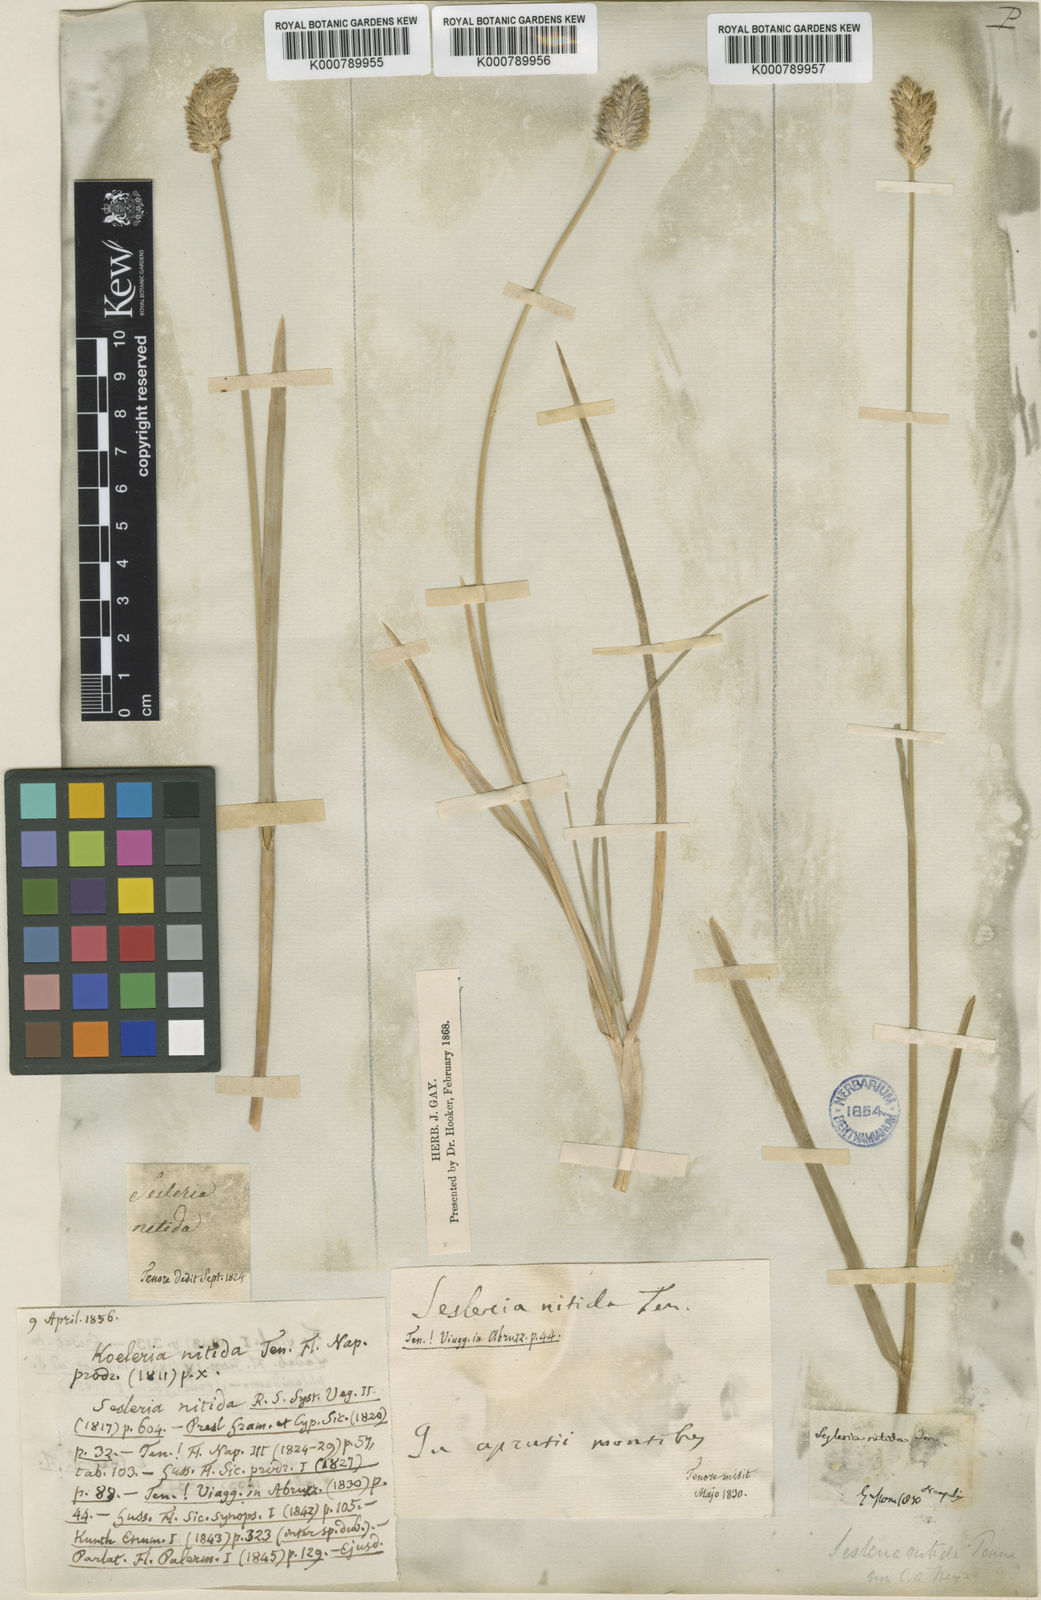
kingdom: Plantae
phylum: Tracheophyta
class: Liliopsida
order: Poales
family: Poaceae
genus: Sesleria
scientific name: Sesleria nitida
